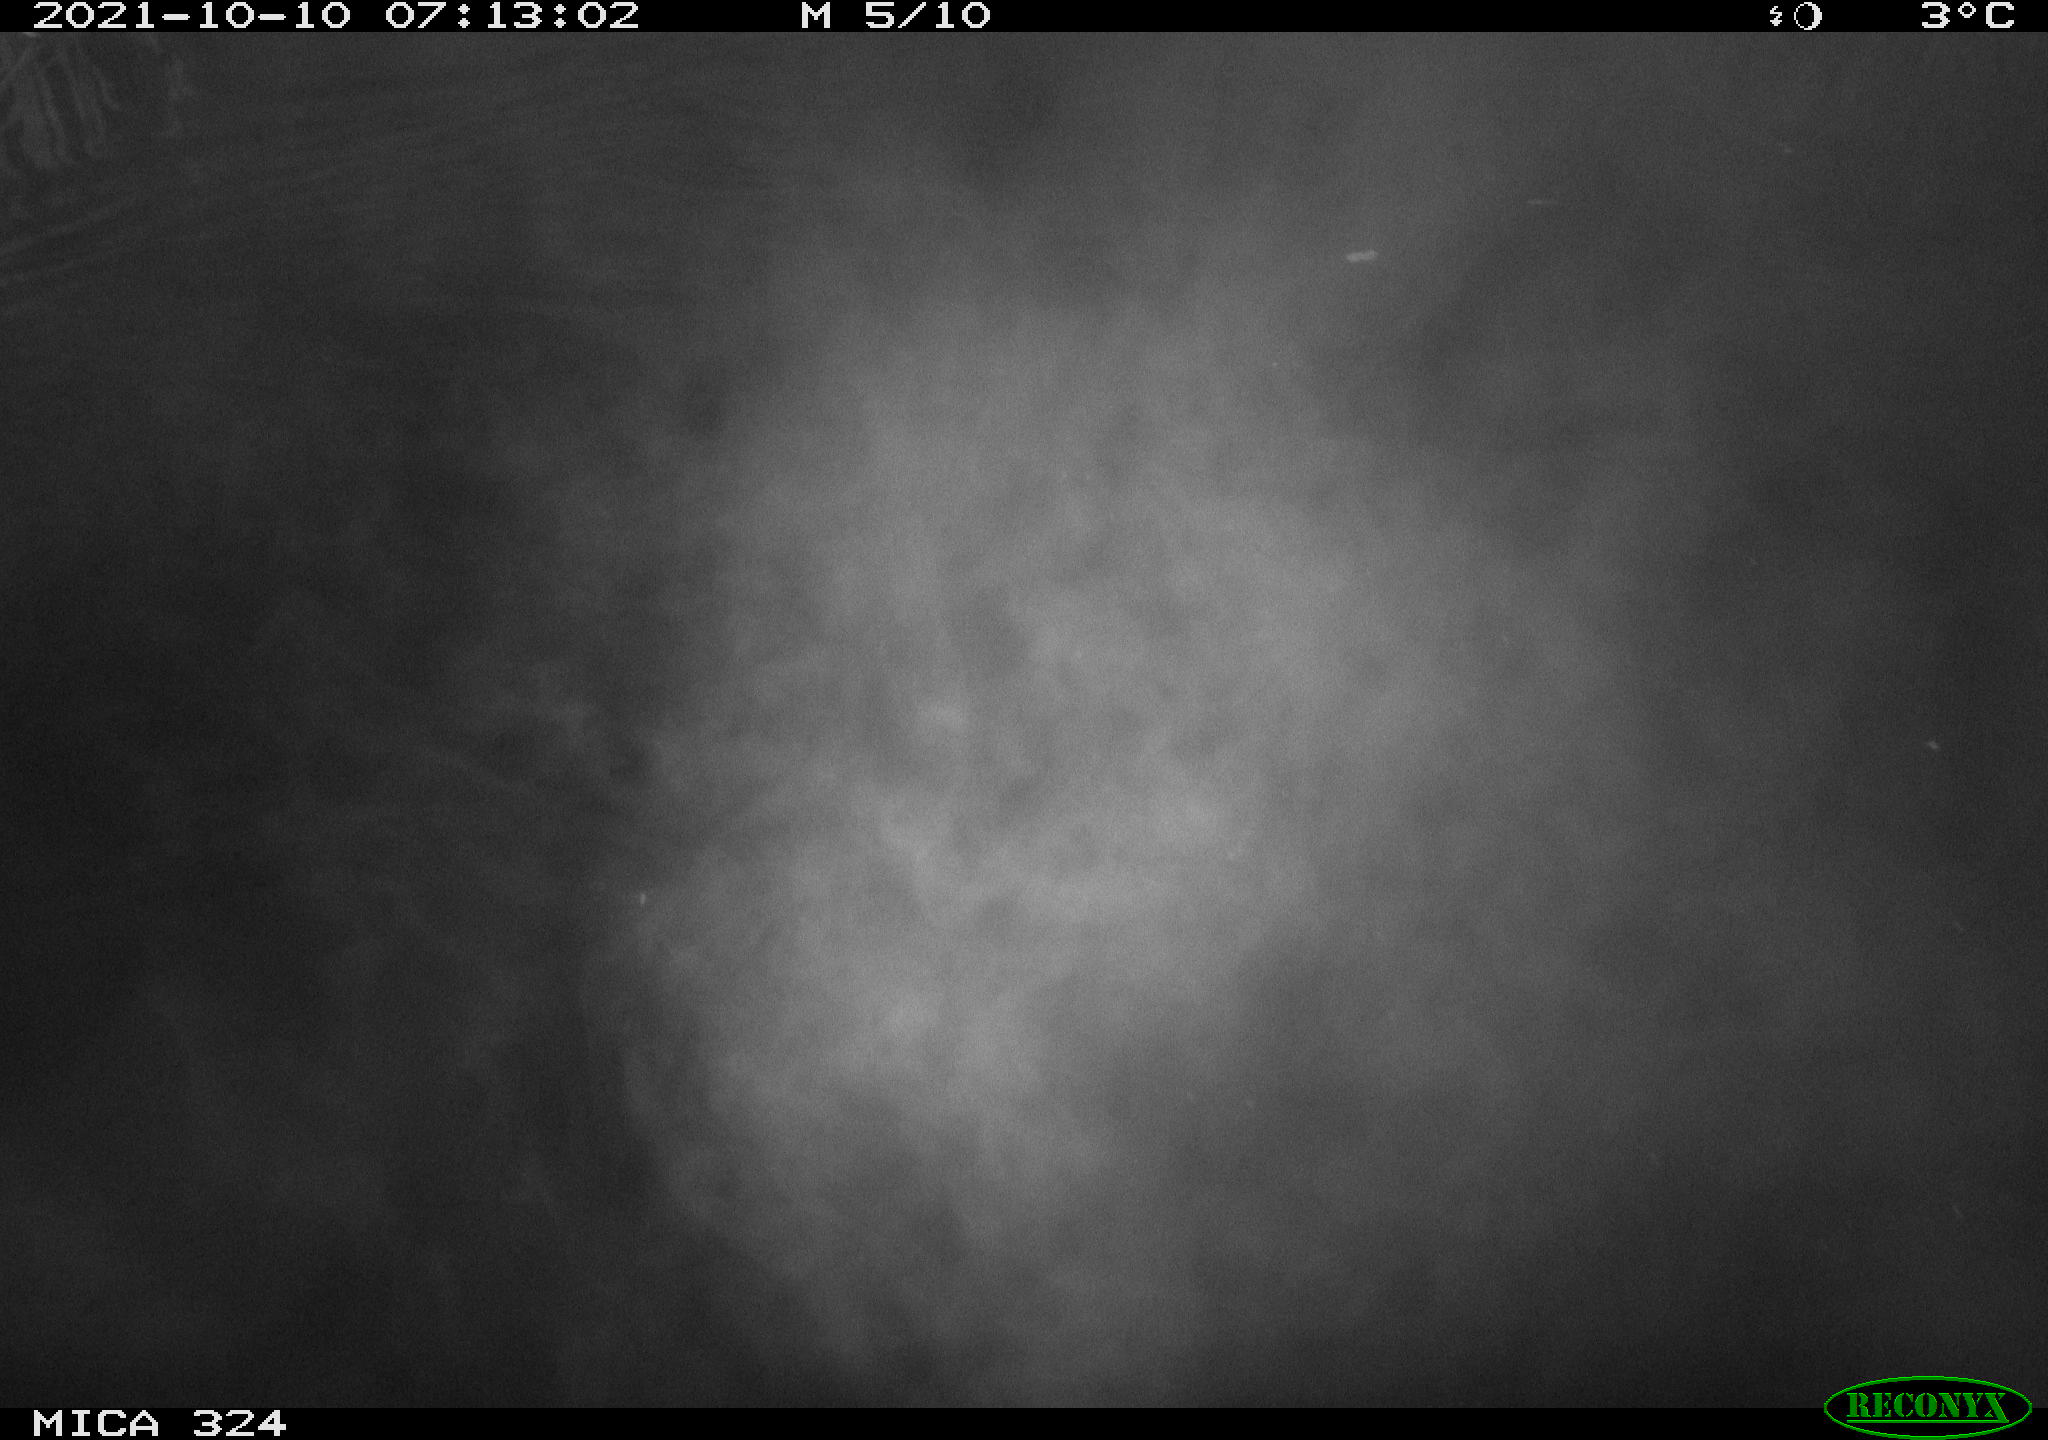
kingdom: Animalia
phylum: Chordata
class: Mammalia
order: Rodentia
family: Cricetidae
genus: Ondatra
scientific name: Ondatra zibethicus
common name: Muskrat
